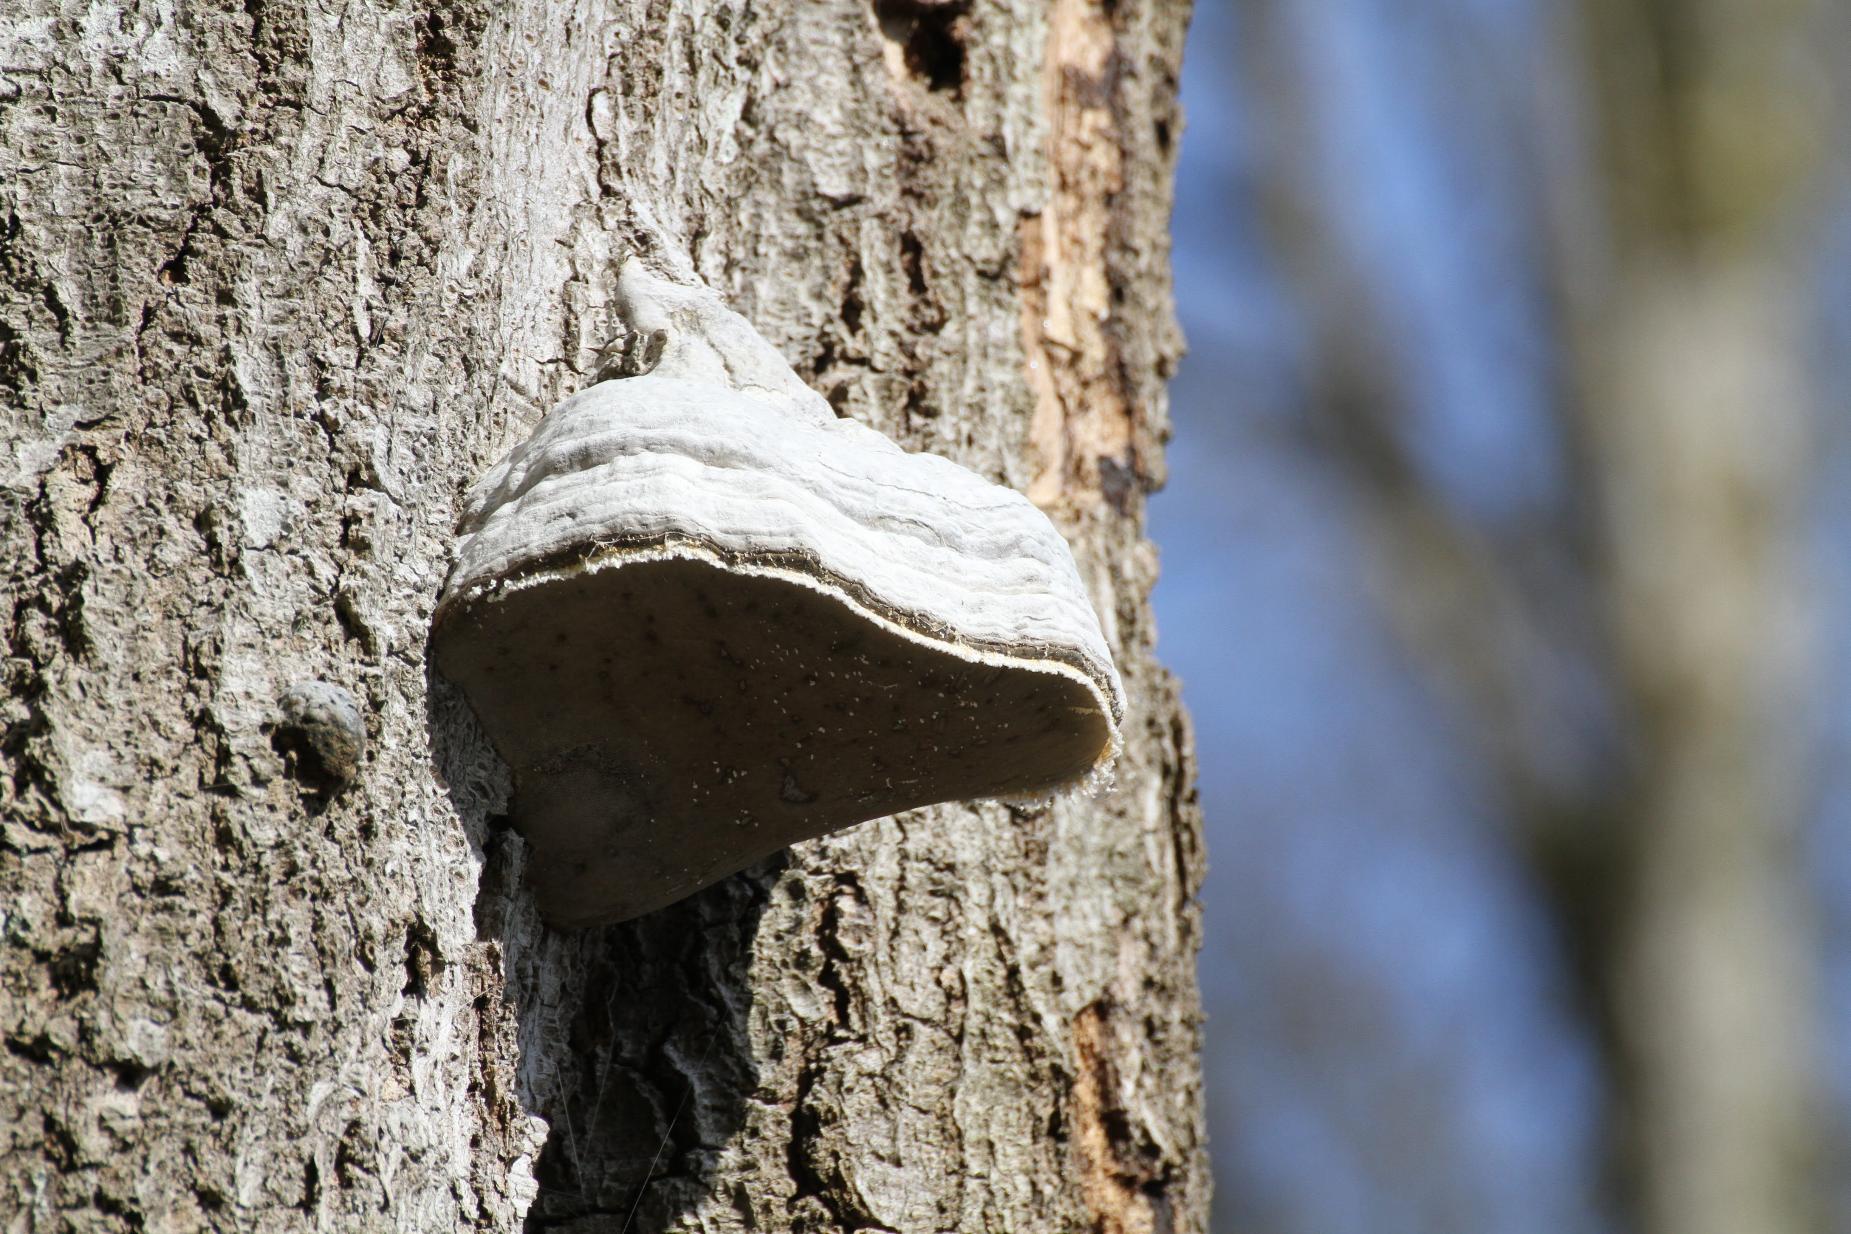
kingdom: Fungi
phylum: Basidiomycota
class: Agaricomycetes
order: Polyporales
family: Polyporaceae
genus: Fomes
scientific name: Fomes fomentarius
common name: Tøndersvamp
